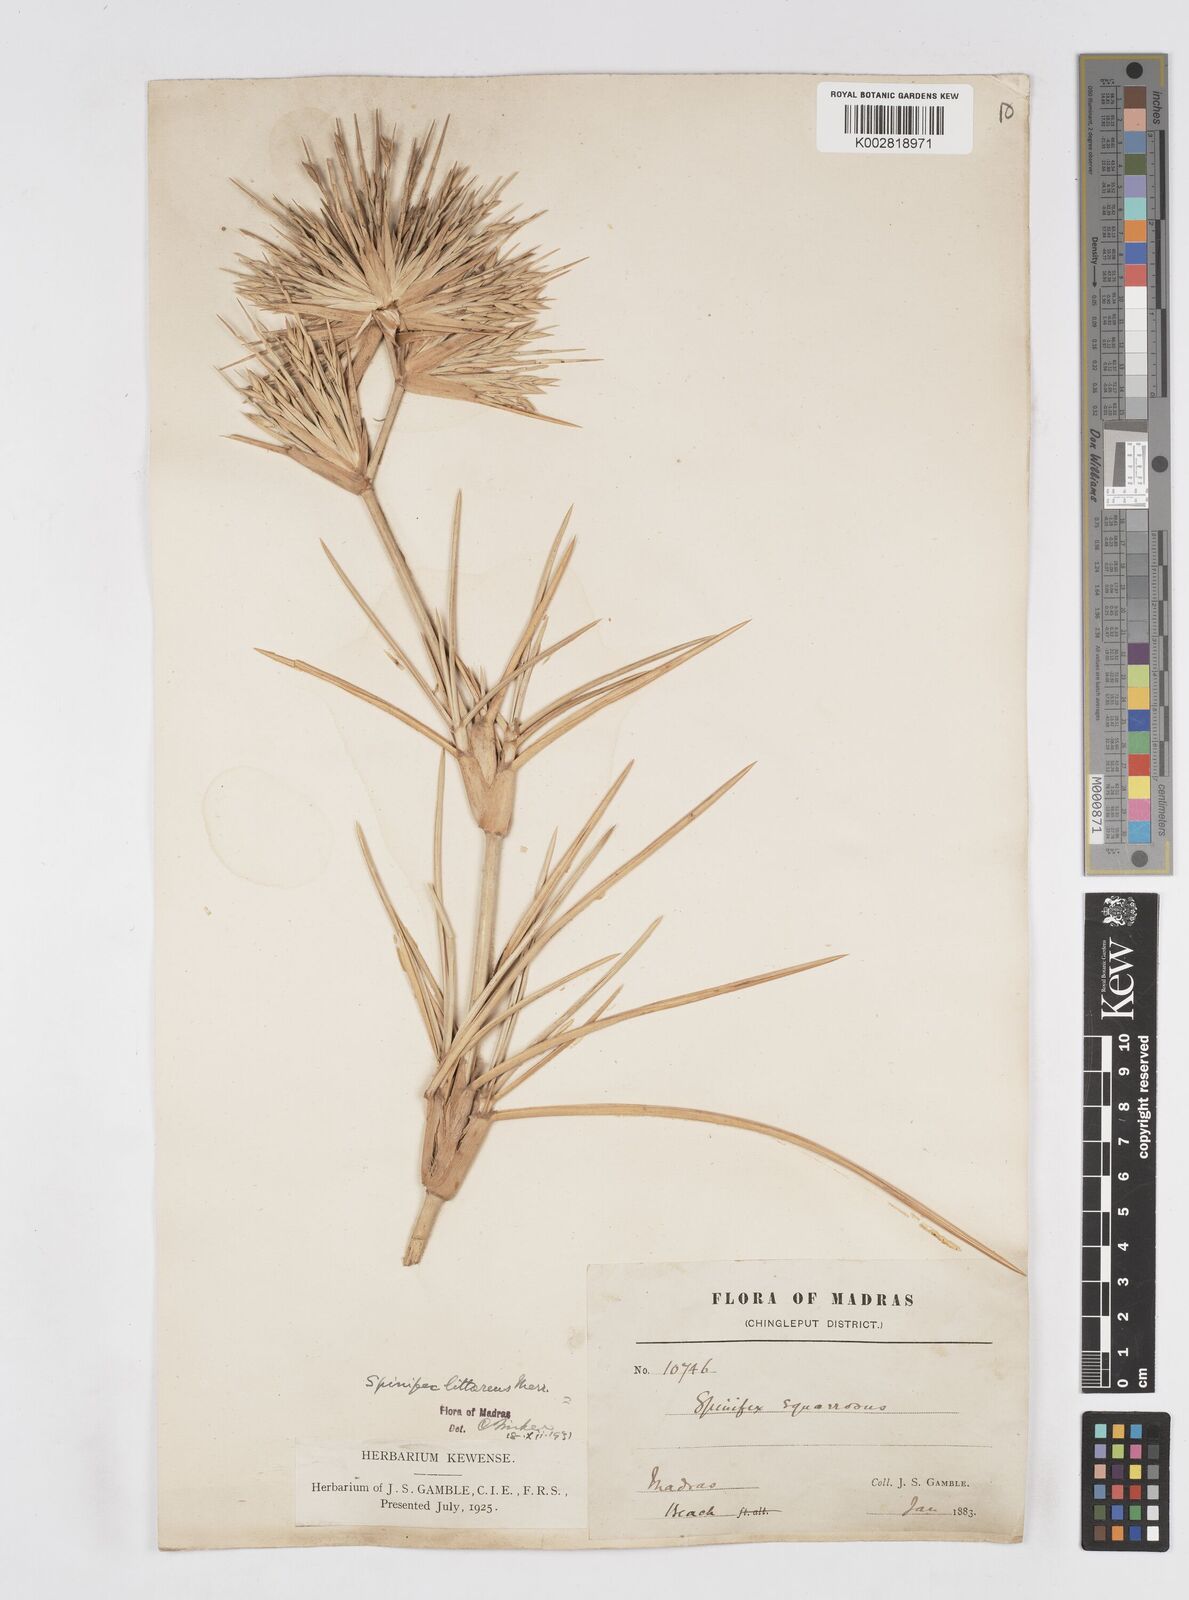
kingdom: Plantae
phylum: Tracheophyta
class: Liliopsida
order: Poales
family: Poaceae
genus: Spinifex
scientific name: Spinifex littoreus
